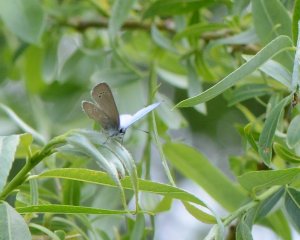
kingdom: Animalia
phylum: Arthropoda
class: Insecta
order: Lepidoptera
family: Lycaenidae
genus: Glaucopsyche
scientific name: Glaucopsyche lygdamus
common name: Silvery Blue
